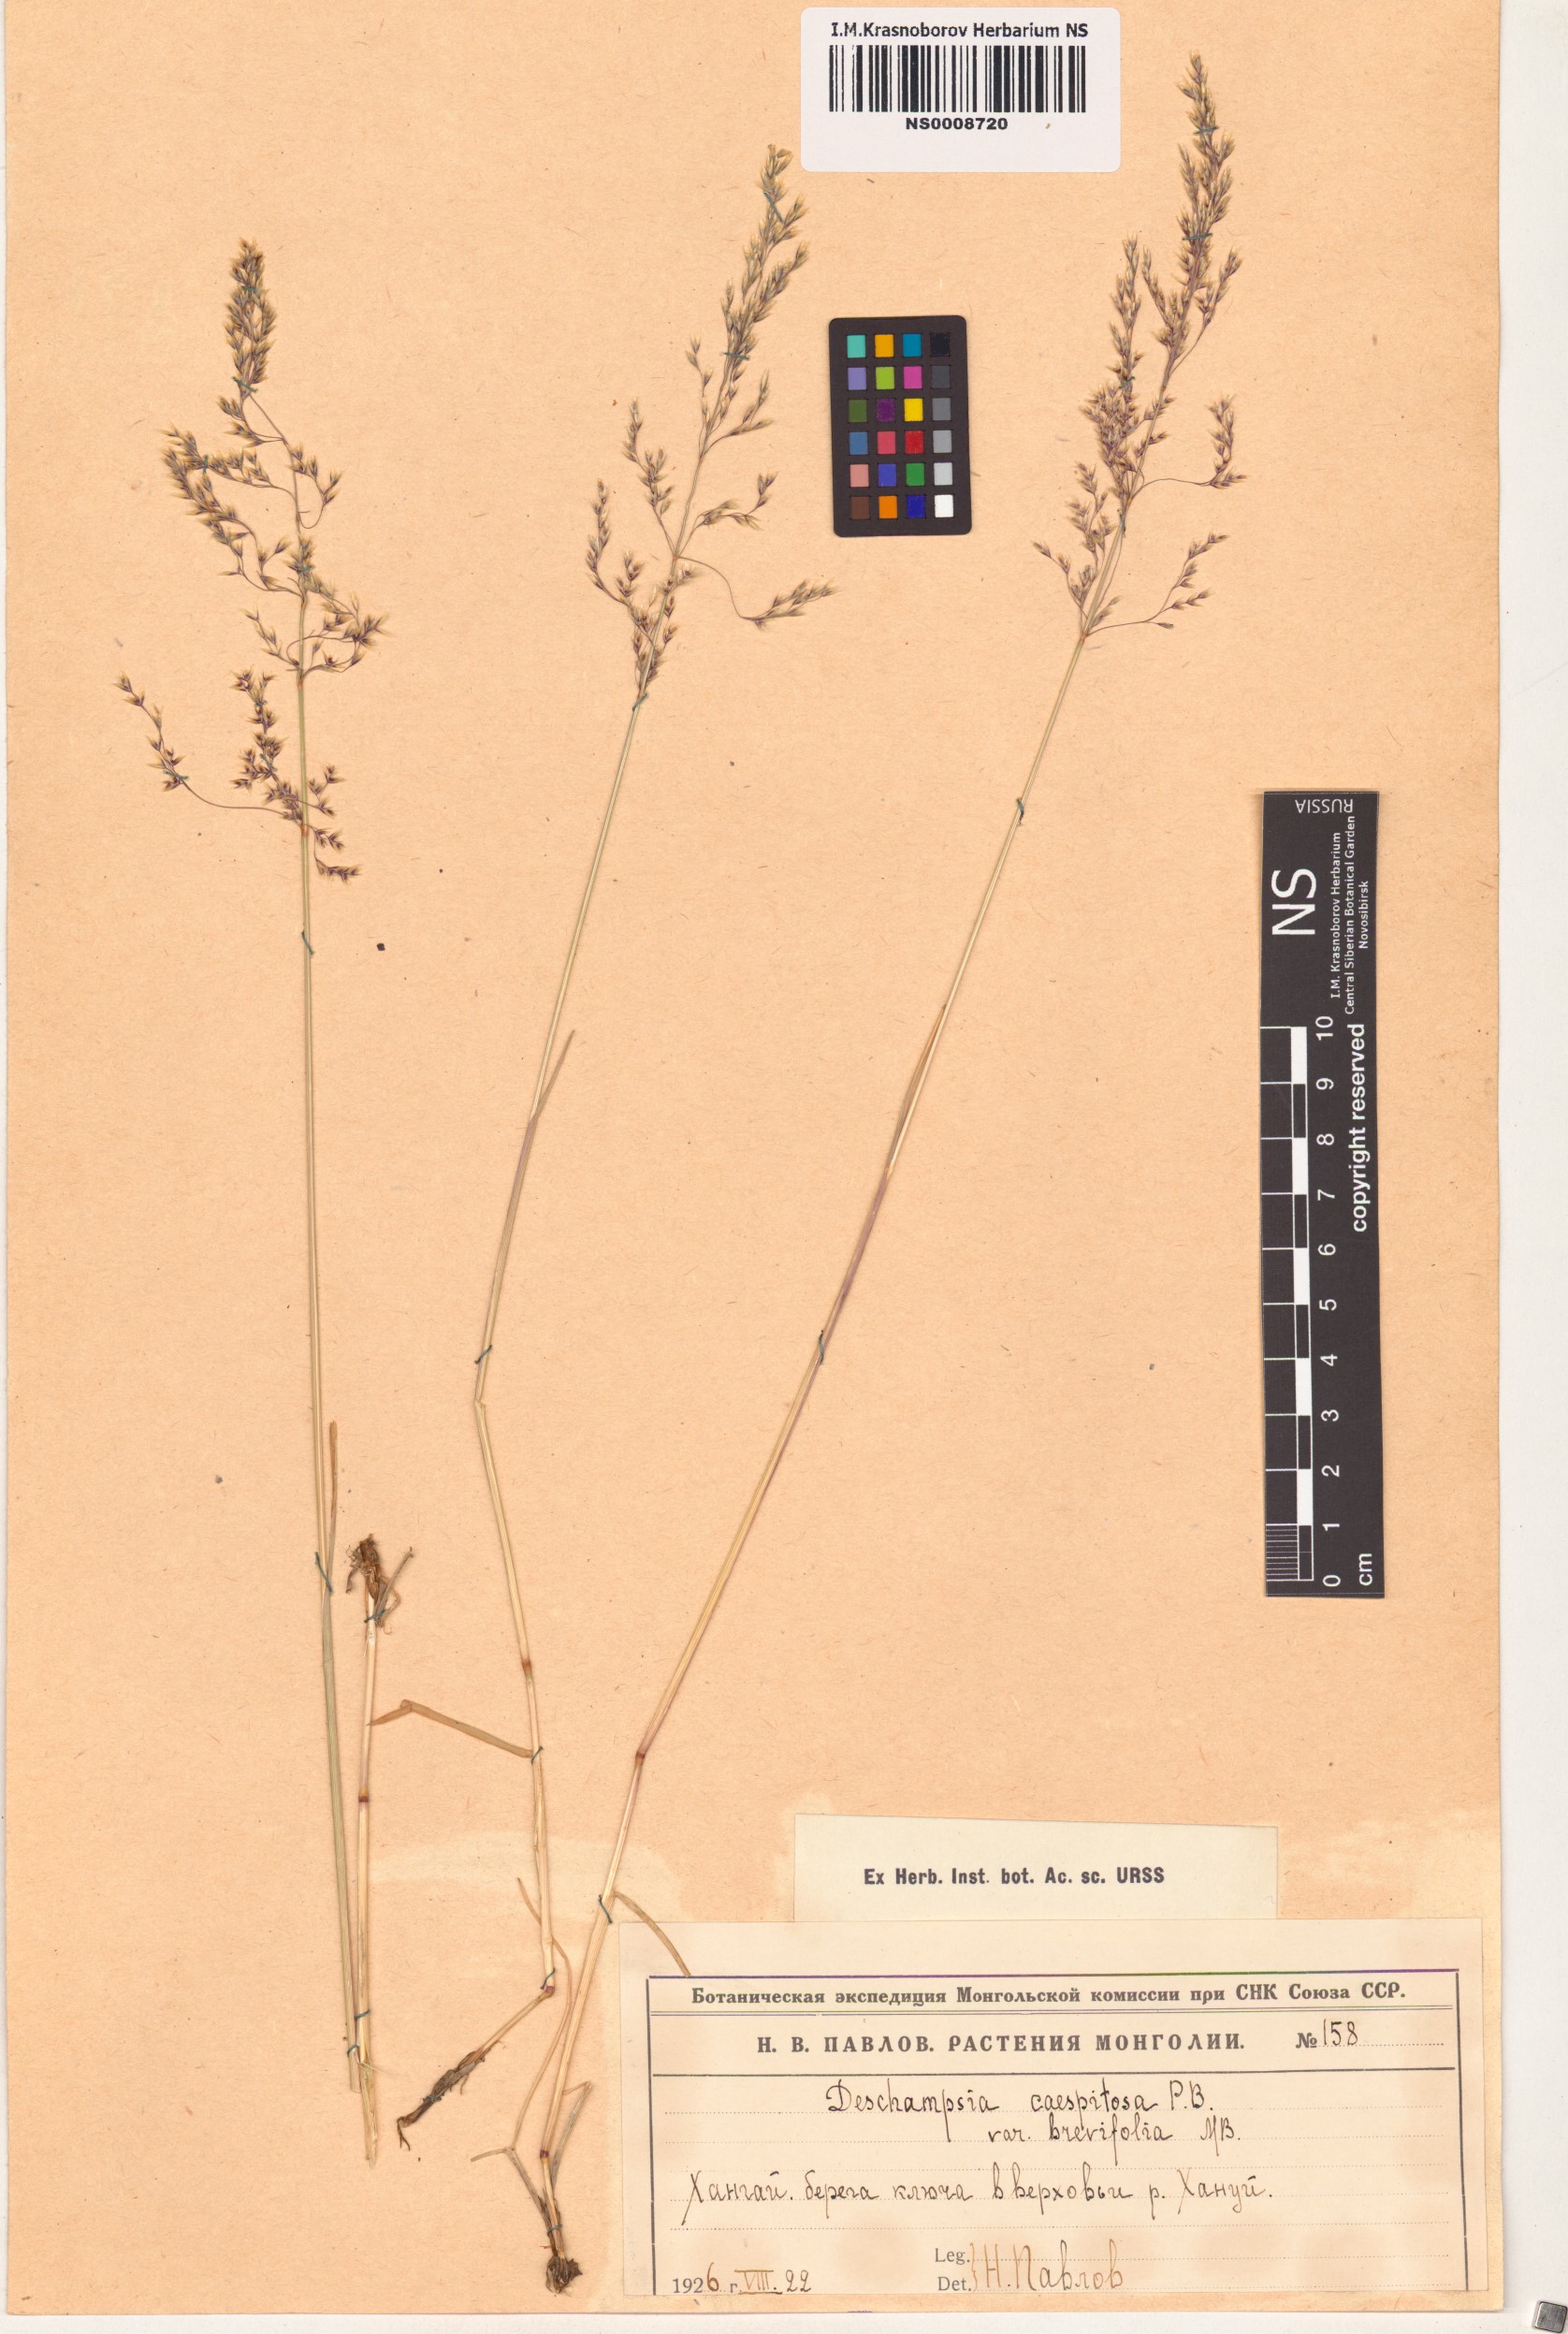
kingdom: Plantae
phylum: Tracheophyta
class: Liliopsida
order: Poales
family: Poaceae
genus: Deschampsia
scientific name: Deschampsia cespitosa
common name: Tufted hair-grass
